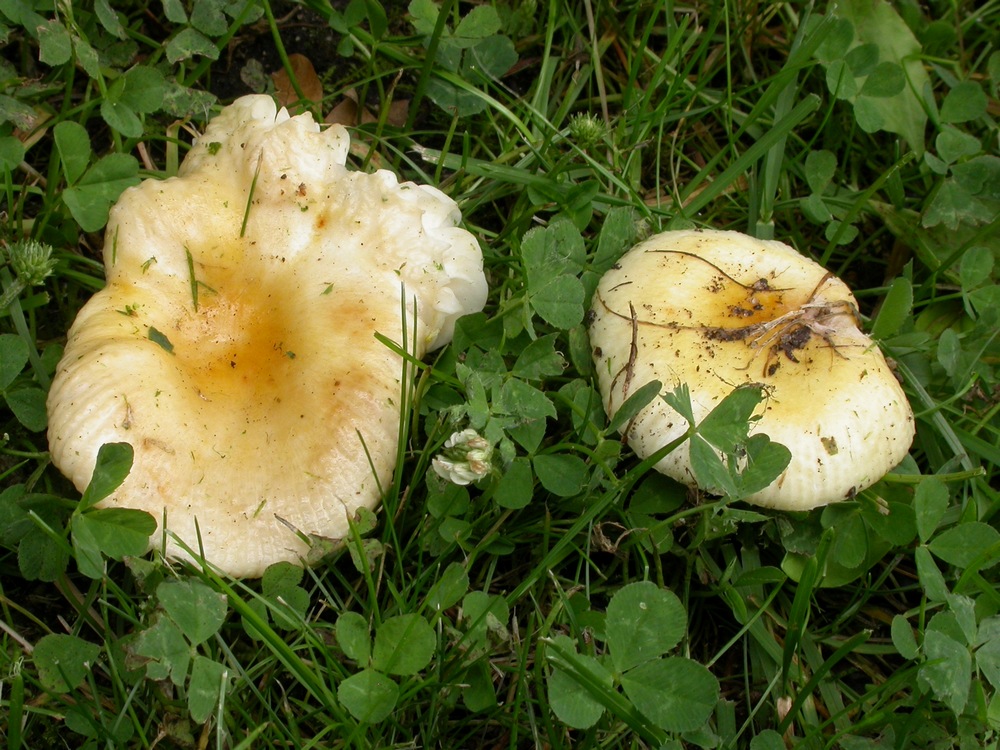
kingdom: Fungi
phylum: Basidiomycota
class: Agaricomycetes
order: Russulales
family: Russulaceae
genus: Russula
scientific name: Russula solaris
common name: sol-skørhat
